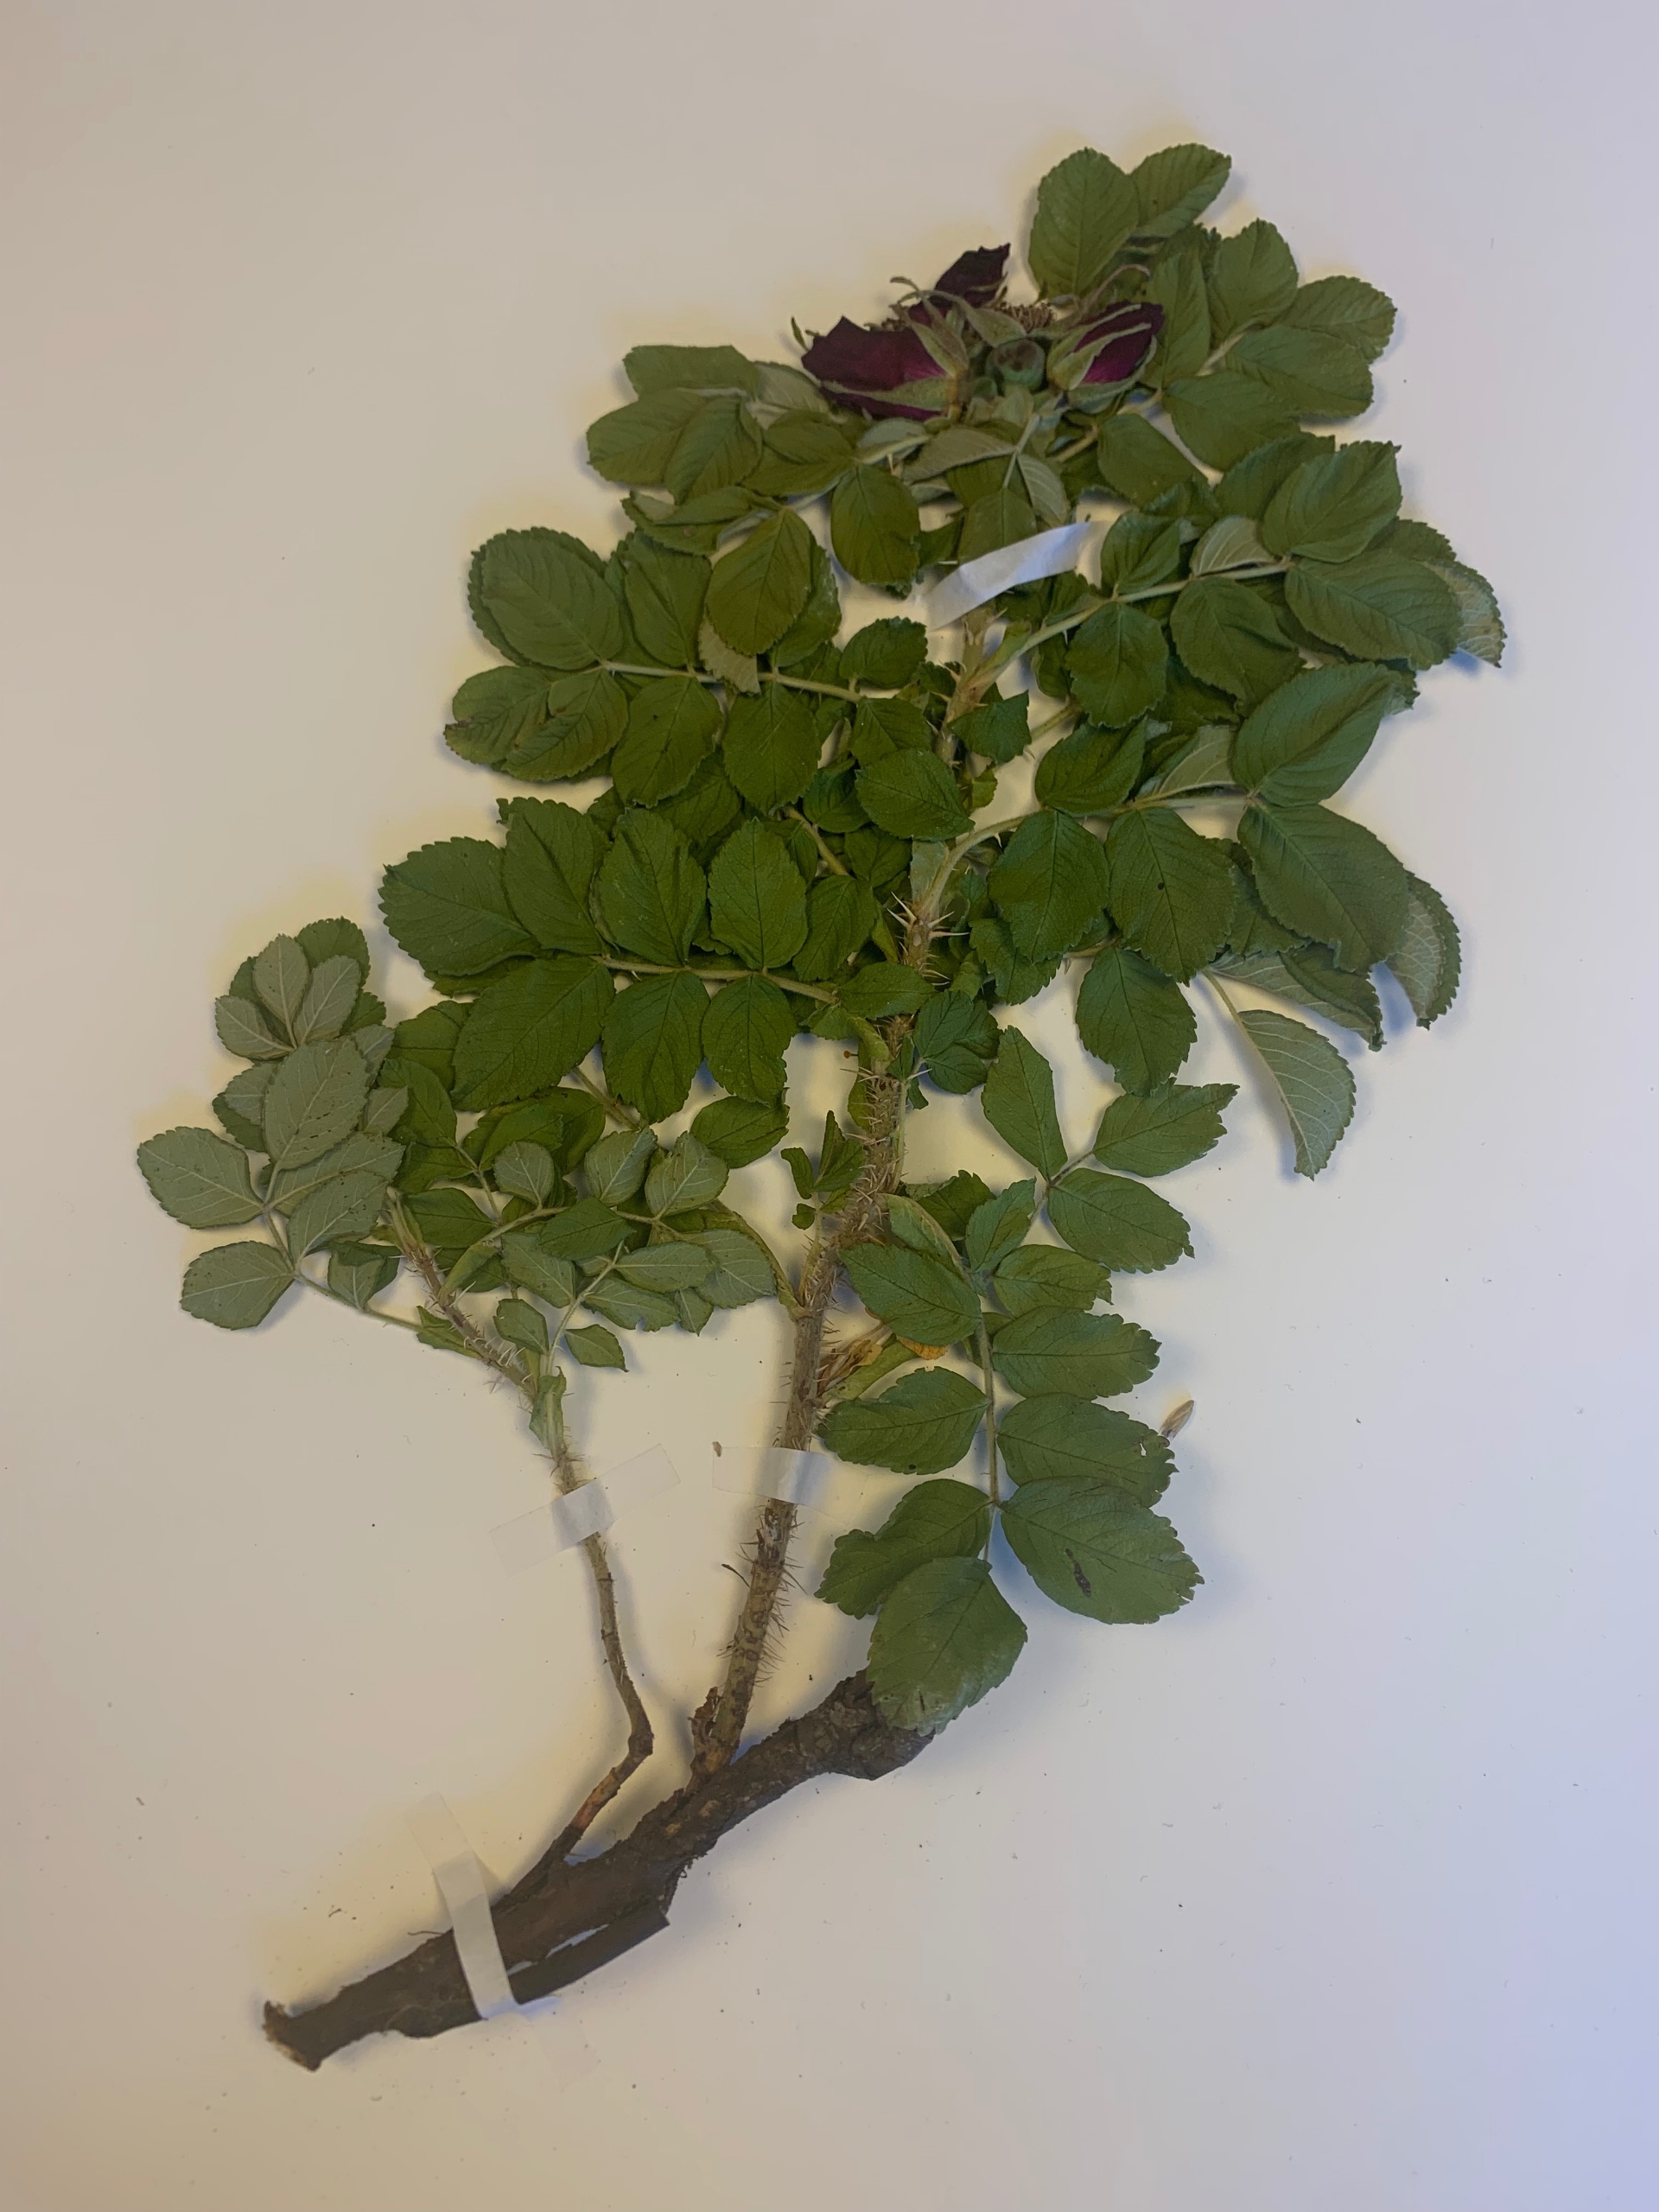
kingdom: Plantae
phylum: Tracheophyta
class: Magnoliopsida
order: Rosales
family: Rosaceae
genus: Rosa
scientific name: Rosa rugosa
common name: Rynket rose
